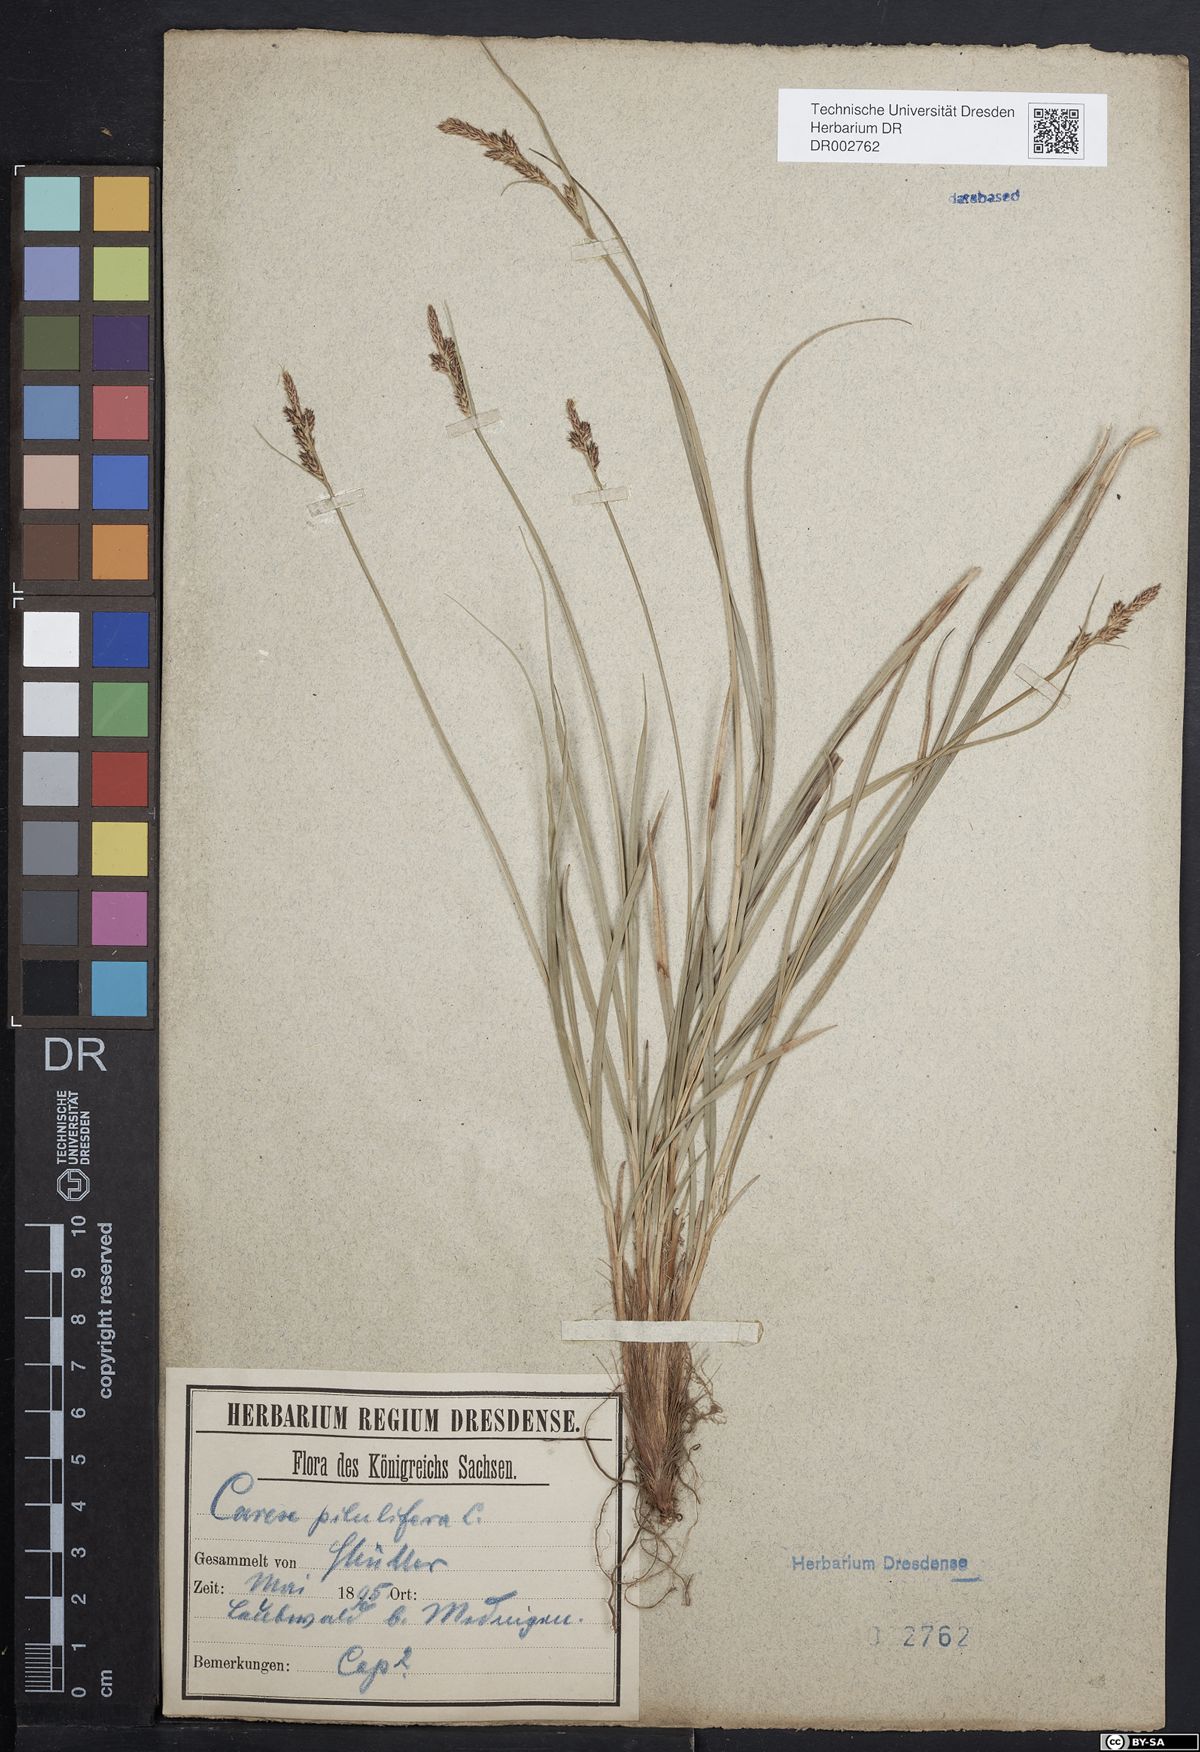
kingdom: Plantae
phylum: Tracheophyta
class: Liliopsida
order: Poales
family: Cyperaceae
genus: Carex
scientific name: Carex caryophyllea
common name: Spring sedge
